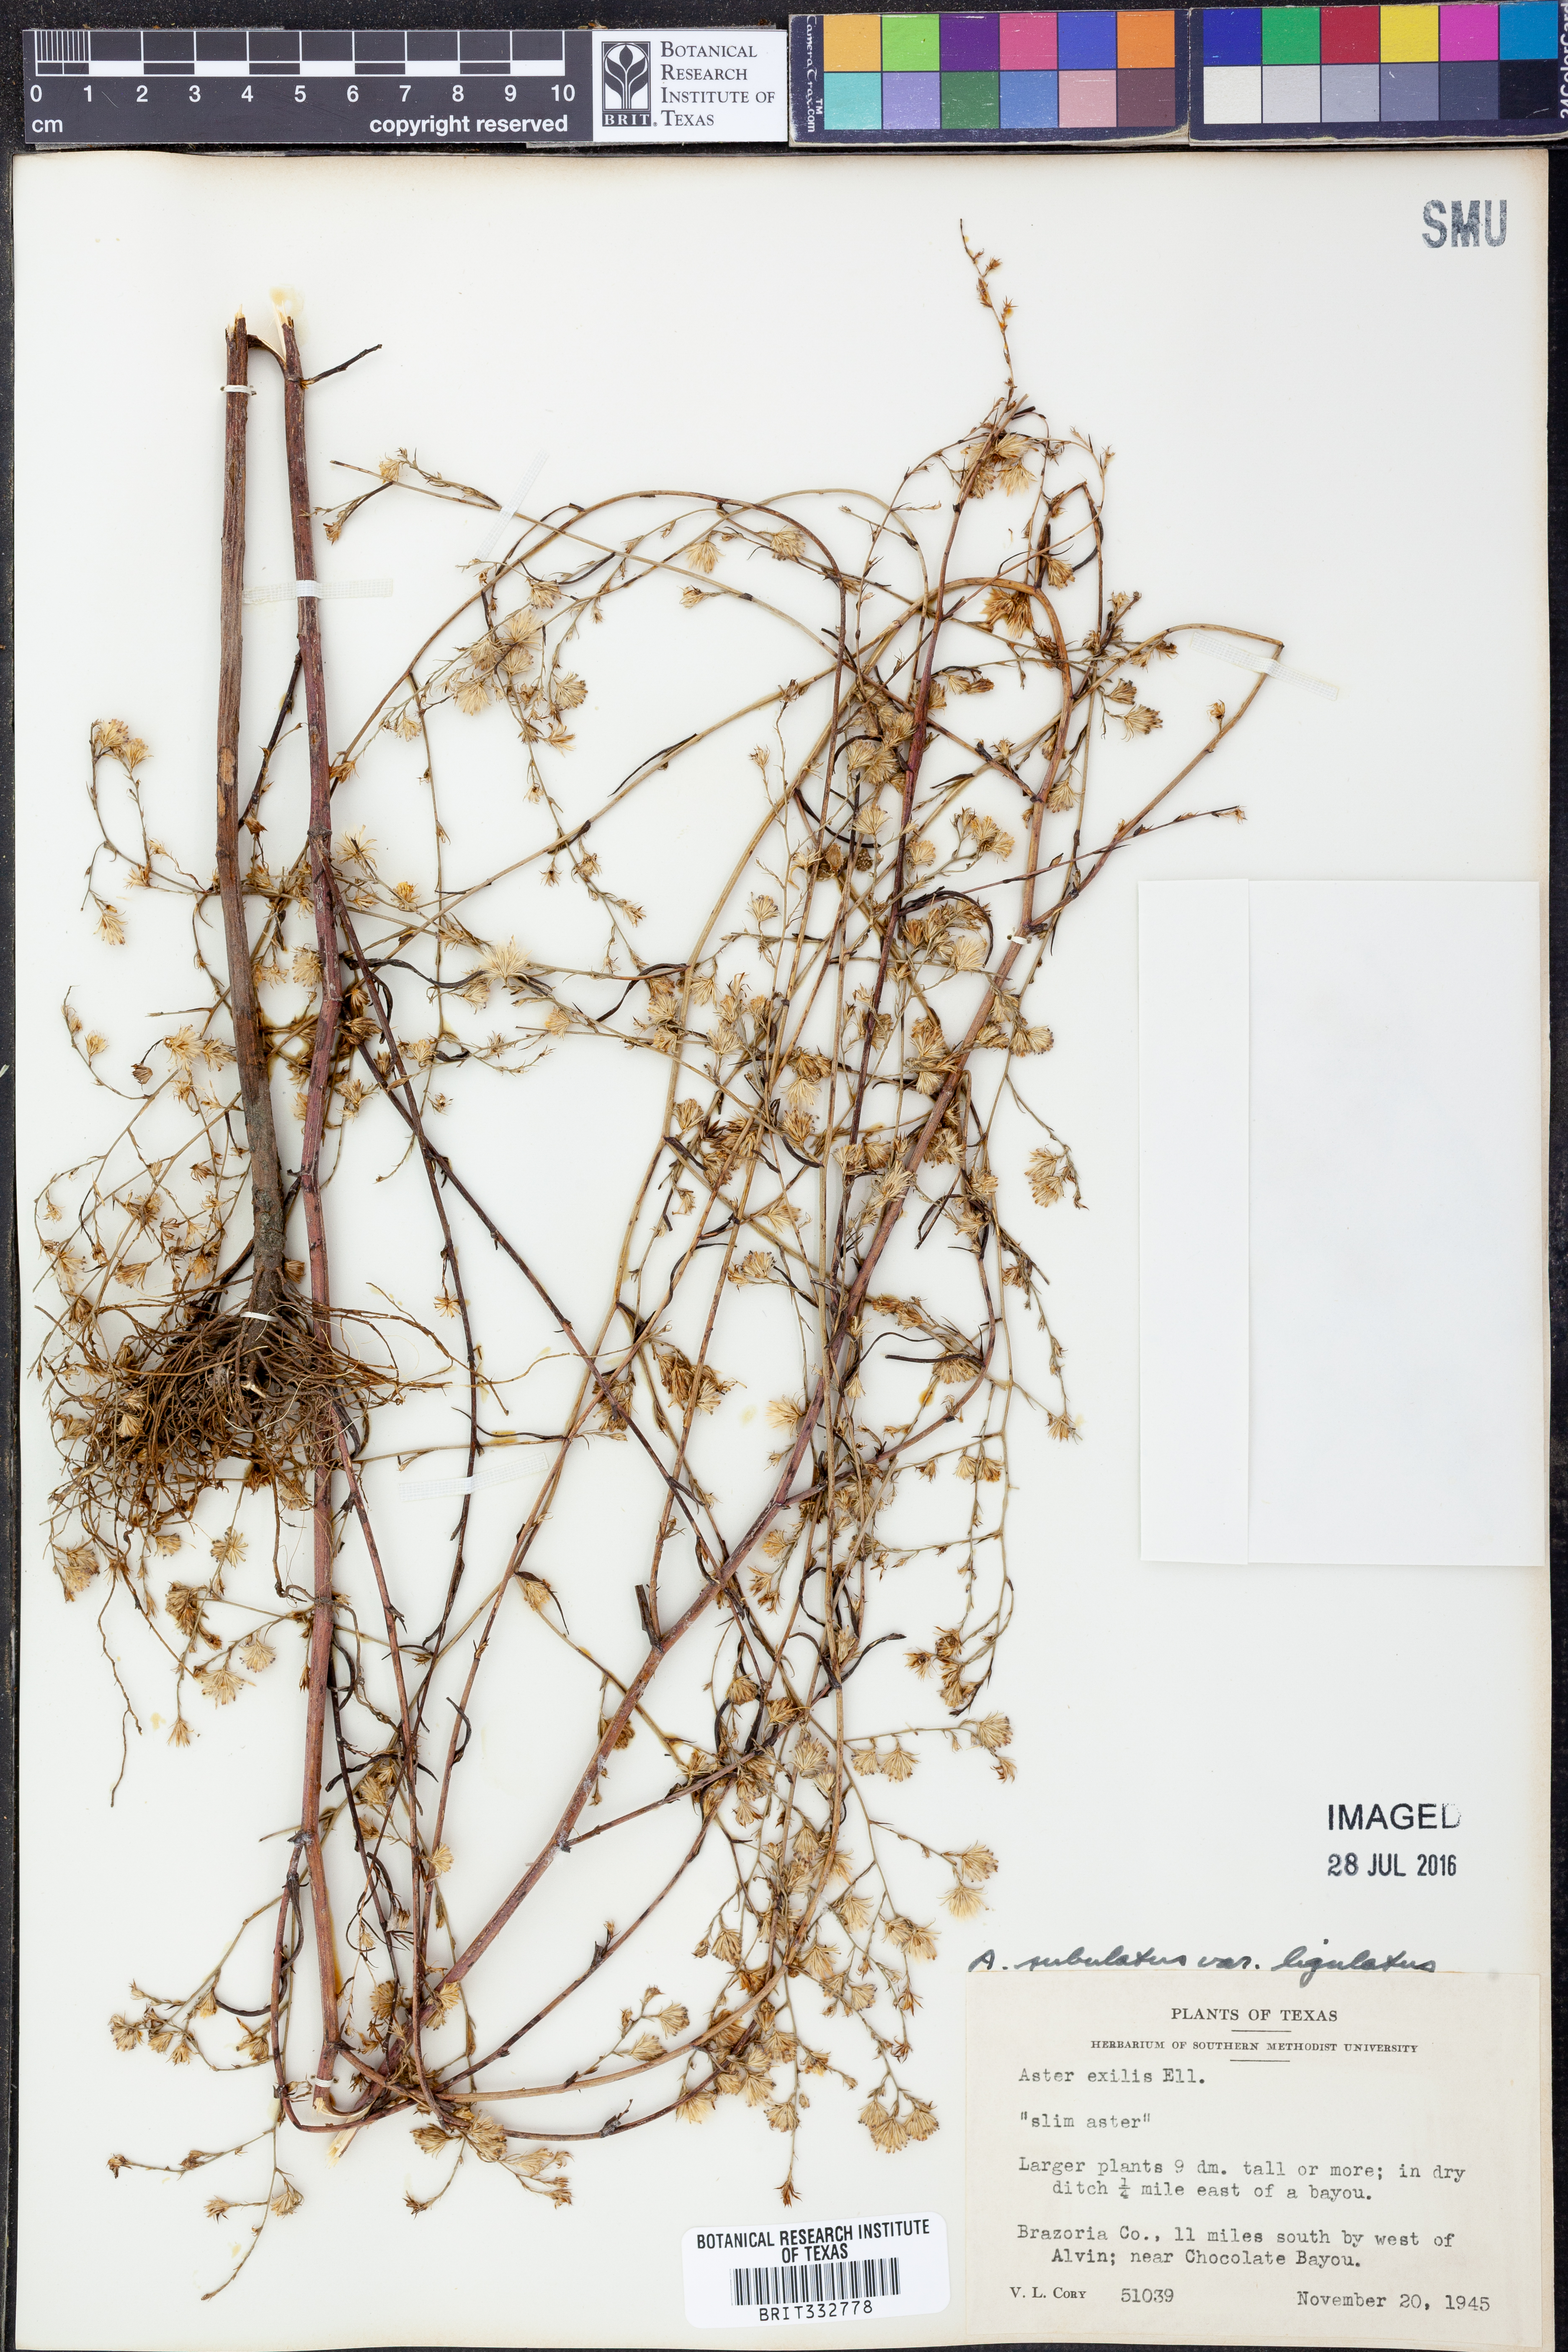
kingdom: Plantae
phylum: Tracheophyta
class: Magnoliopsida
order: Asterales
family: Asteraceae
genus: Symphyotrichum
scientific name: Symphyotrichum divaricatum
